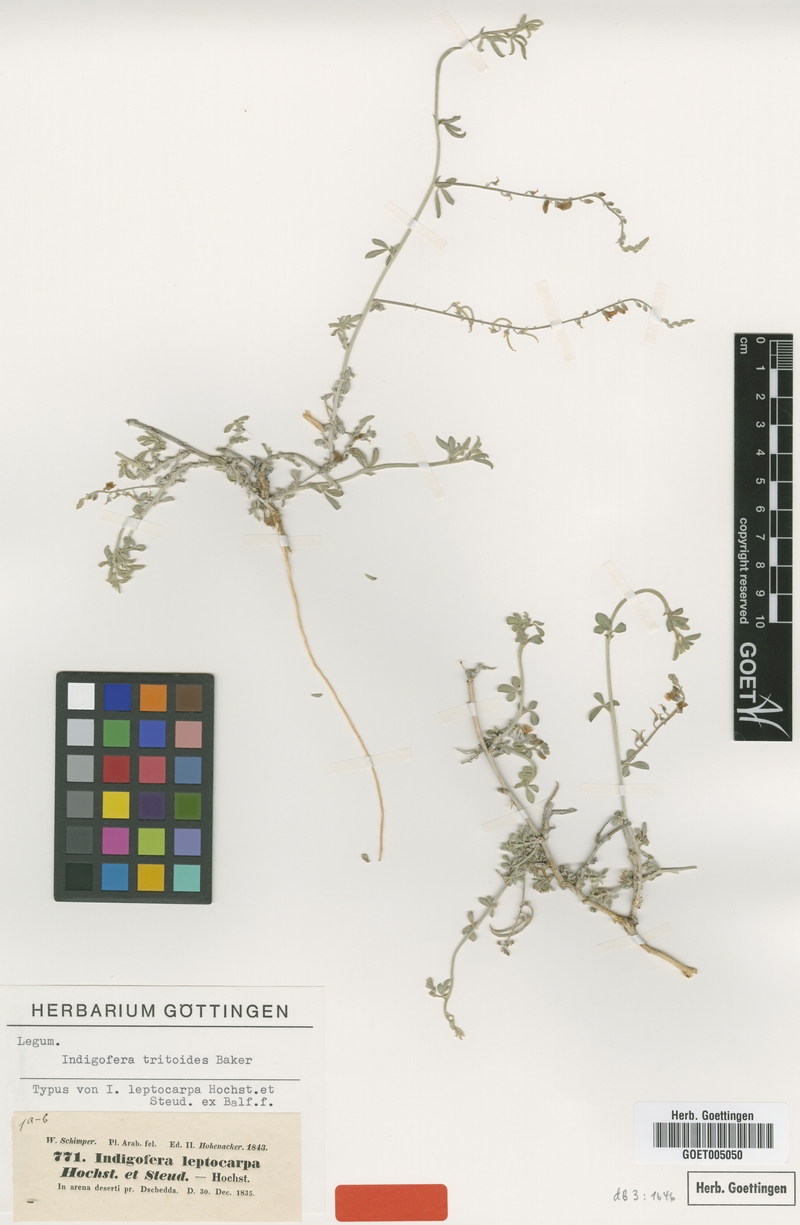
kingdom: Plantae
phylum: Tracheophyta
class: Magnoliopsida
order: Fabales
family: Fabaceae
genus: Microcharis
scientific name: Microcharis tritoides
